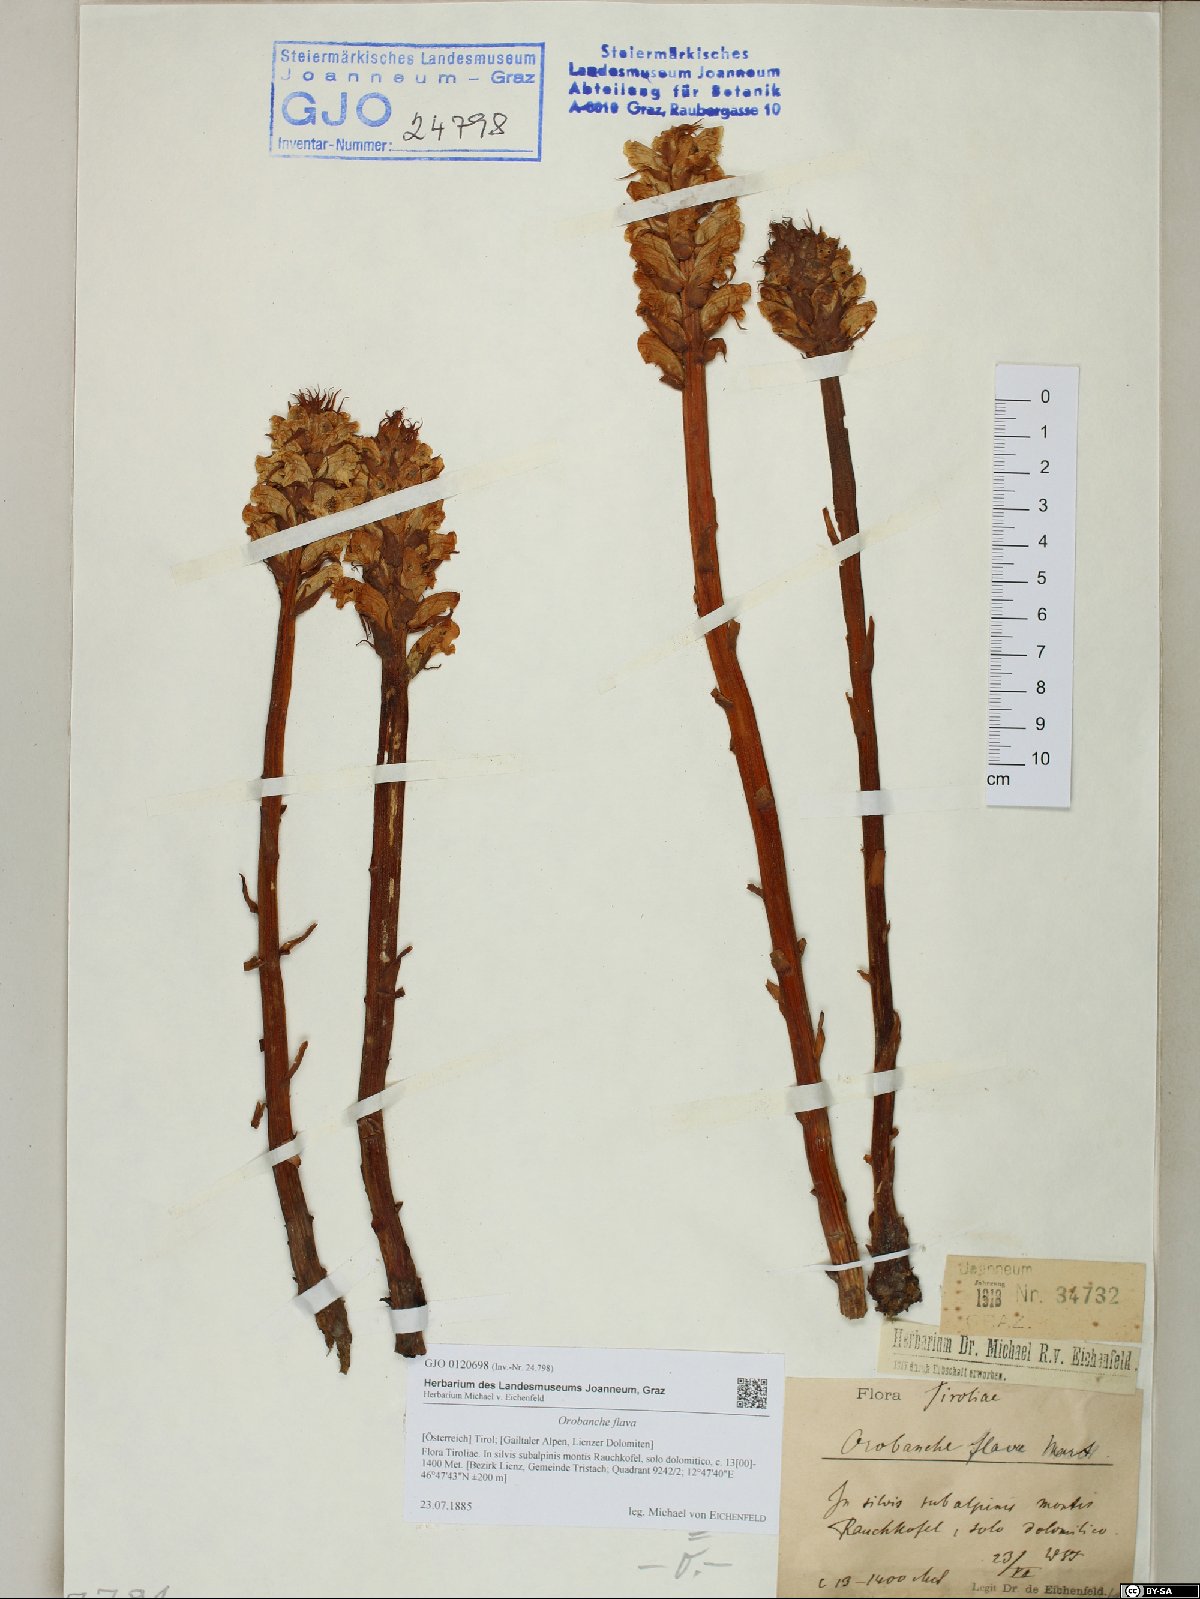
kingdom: Plantae
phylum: Tracheophyta
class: Magnoliopsida
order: Lamiales
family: Orobanchaceae
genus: Orobanche
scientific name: Orobanche flava
